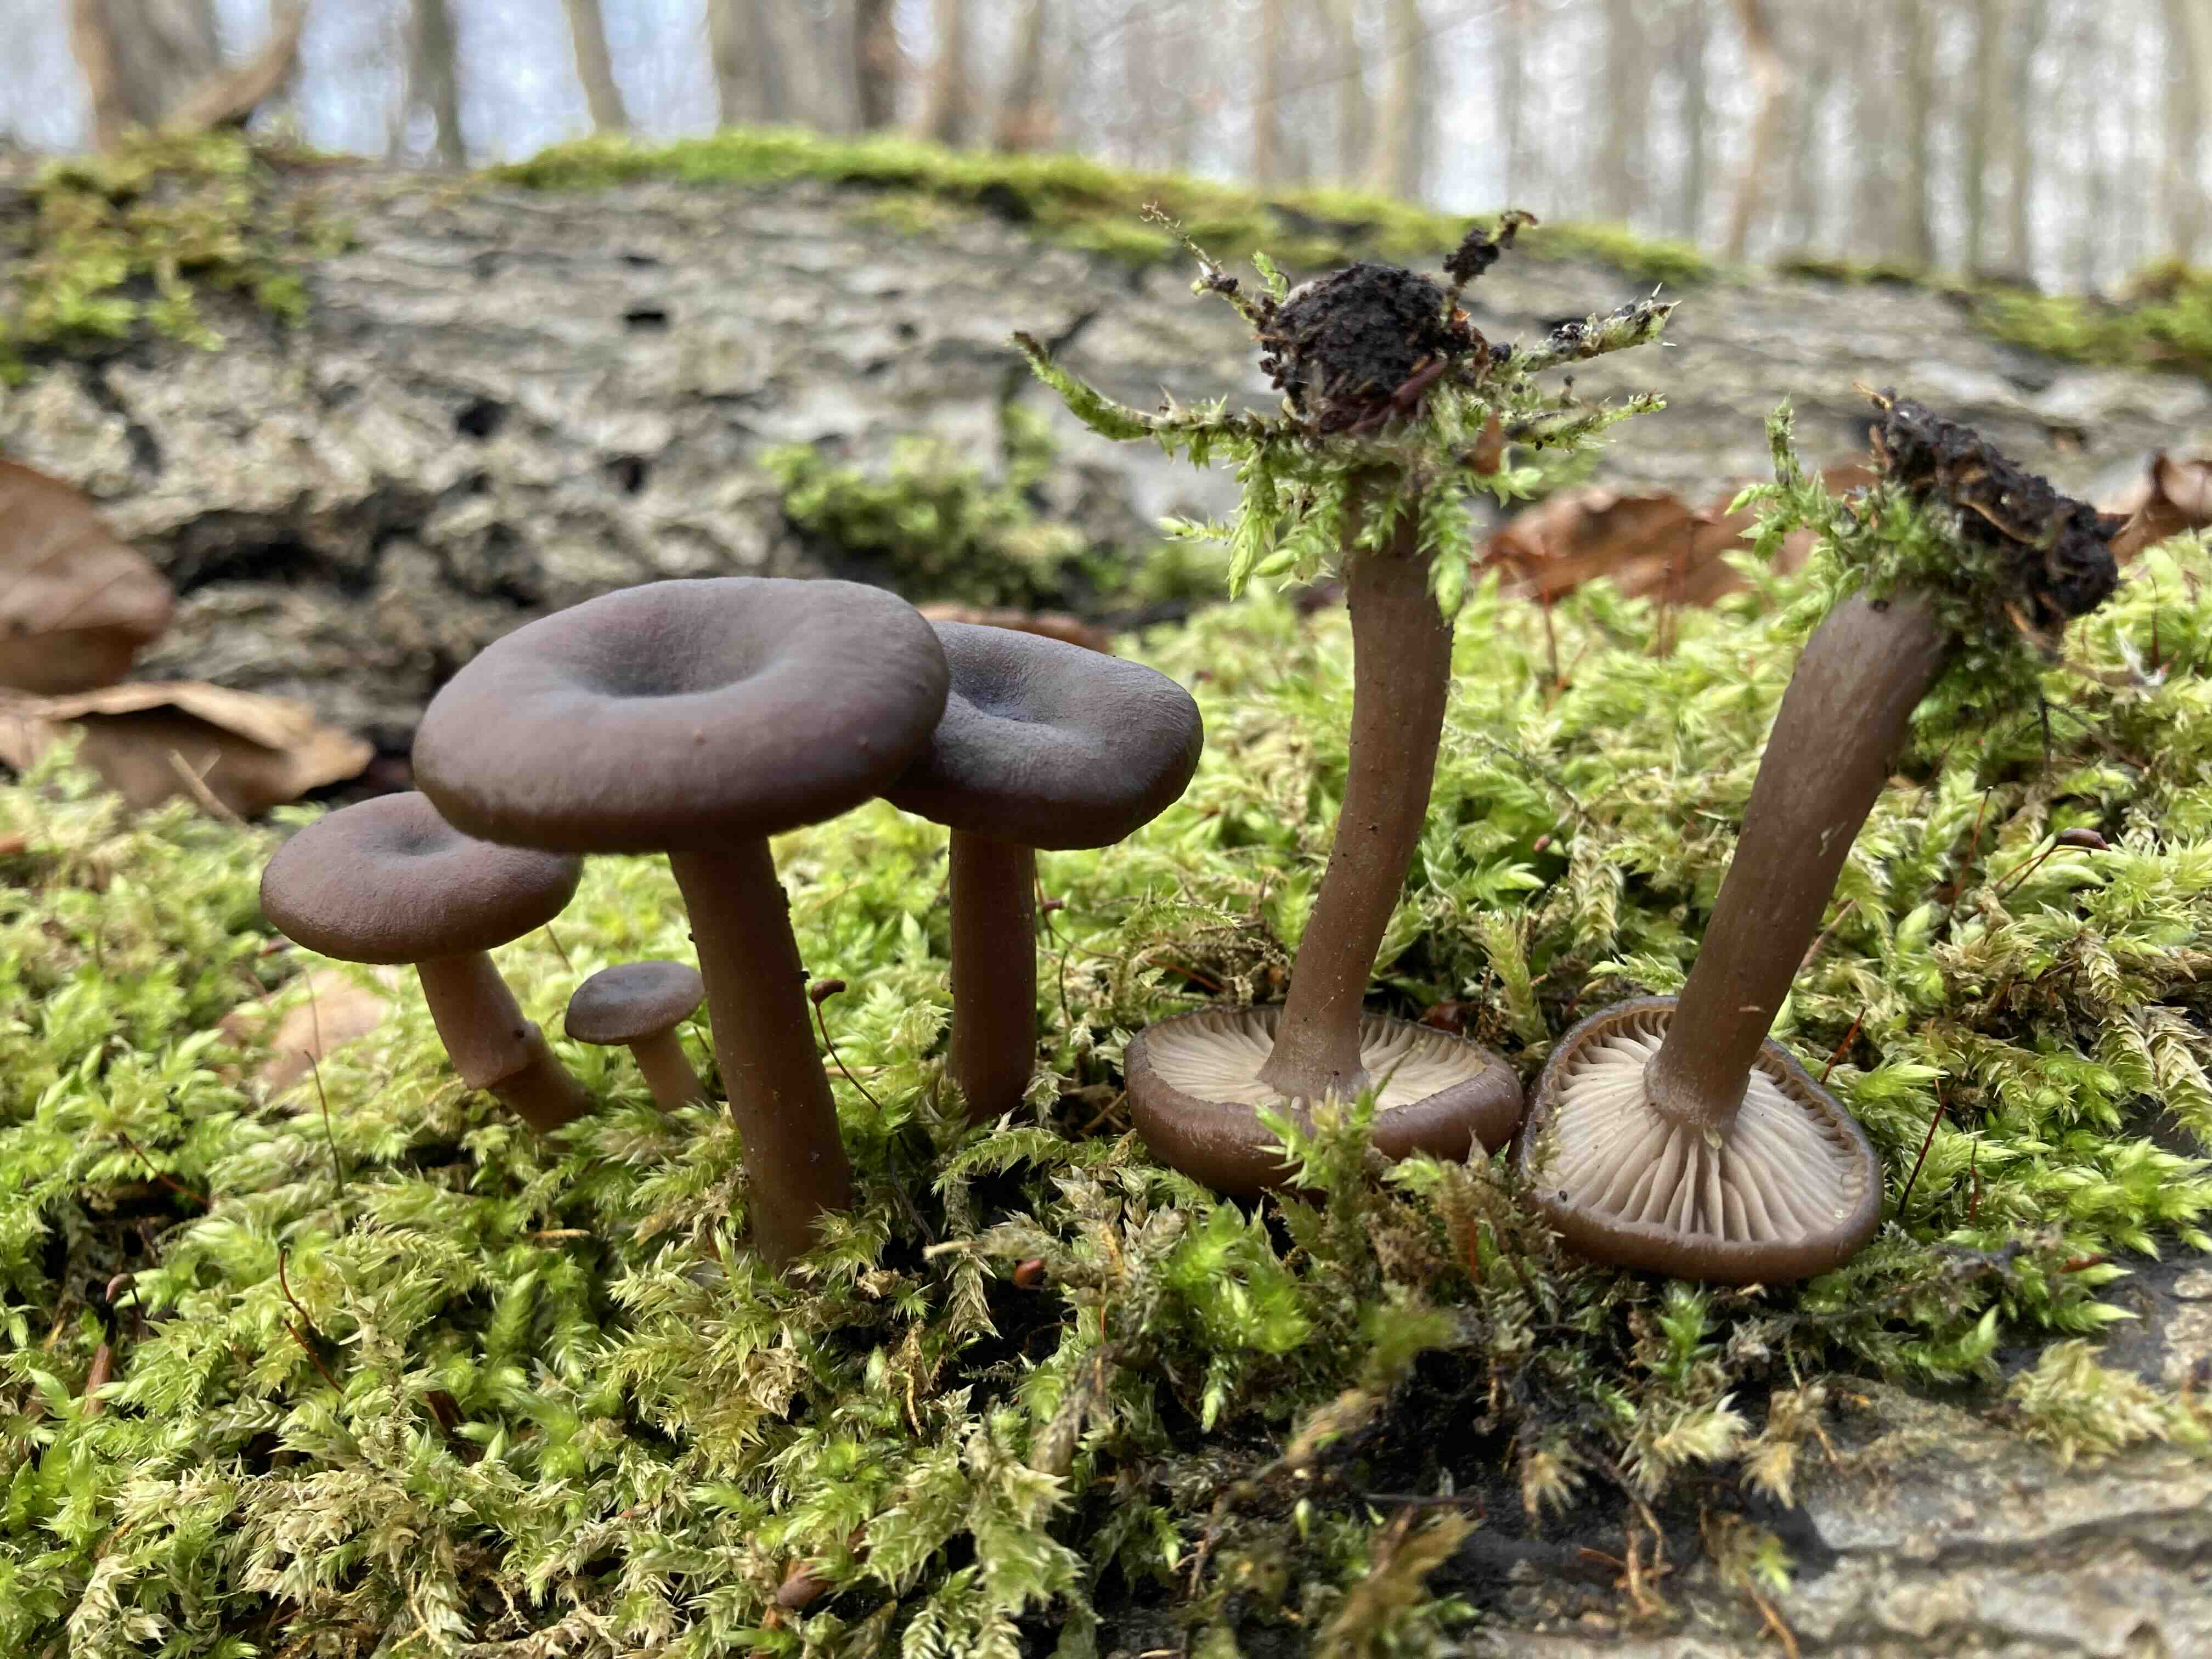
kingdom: Fungi
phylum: Basidiomycota
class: Agaricomycetes
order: Agaricales
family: Pseudoclitocybaceae
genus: Pseudoclitocybe
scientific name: Pseudoclitocybe cyathiformis
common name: almindelig bægertragthat
